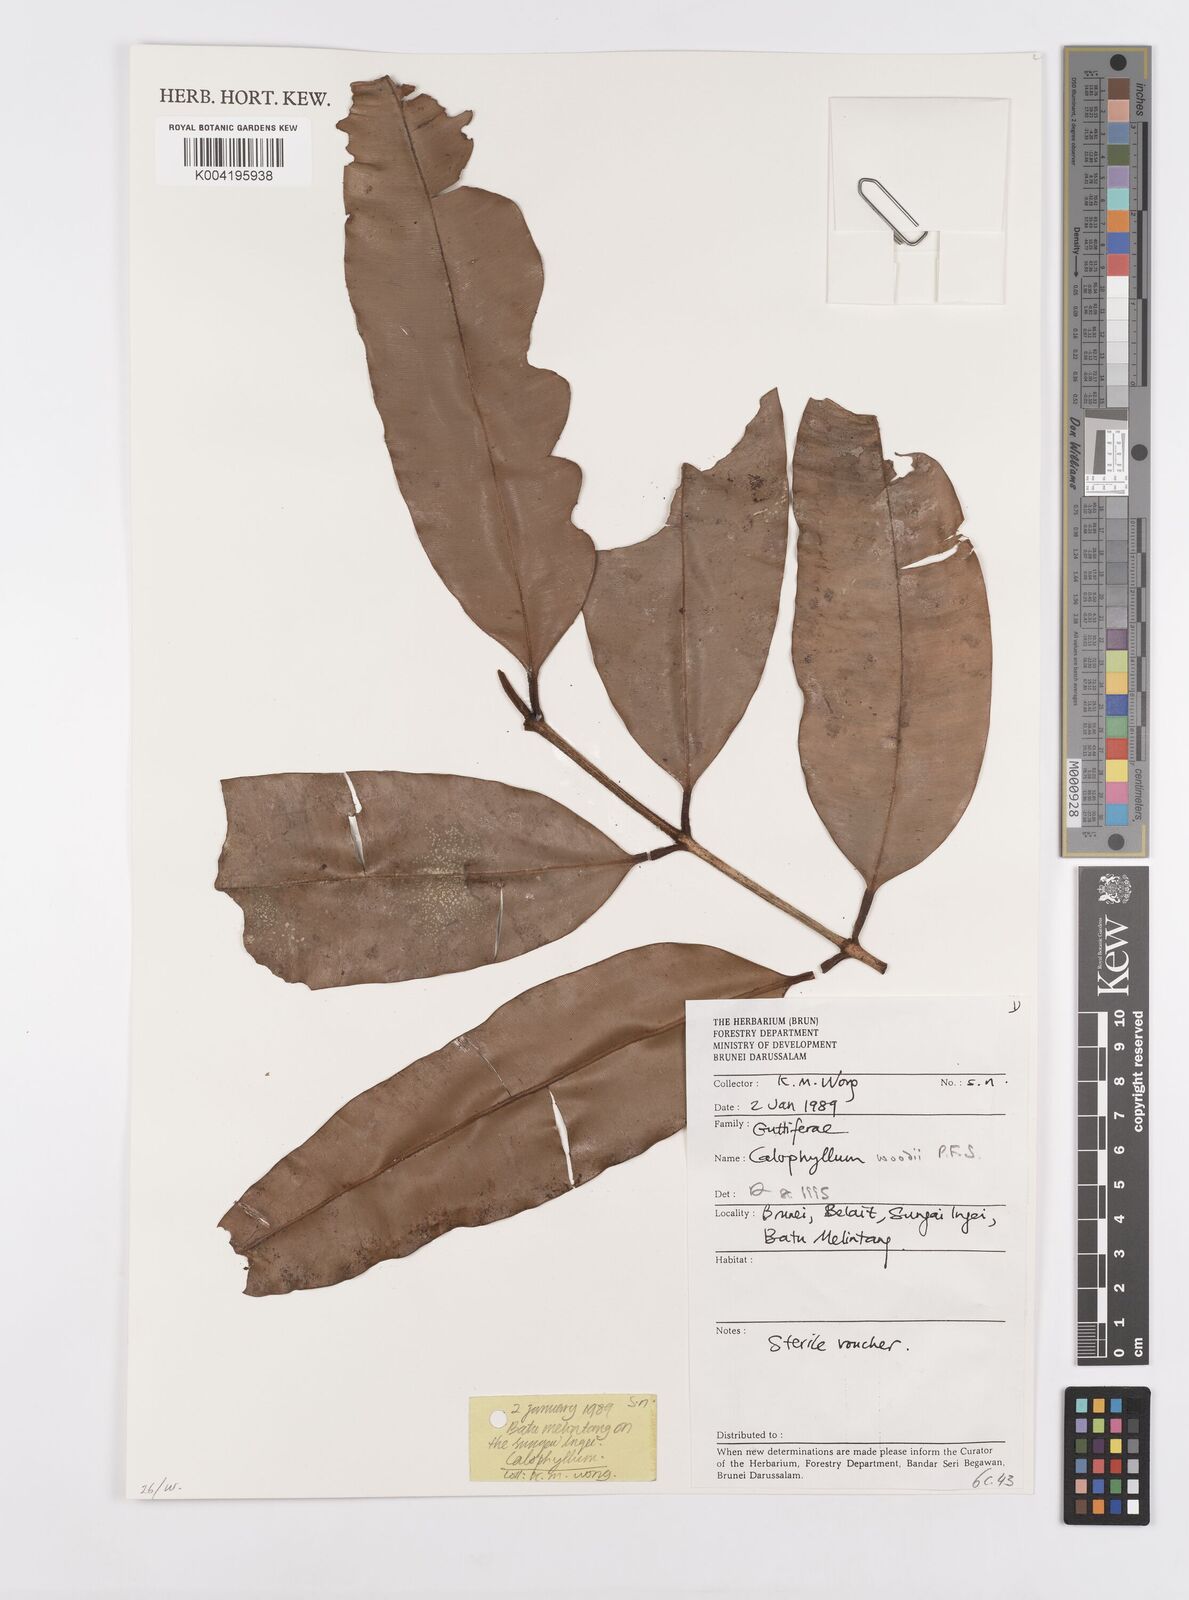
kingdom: Plantae
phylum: Tracheophyta
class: Magnoliopsida
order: Malpighiales
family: Calophyllaceae
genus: Calophyllum
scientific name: Calophyllum woodii
